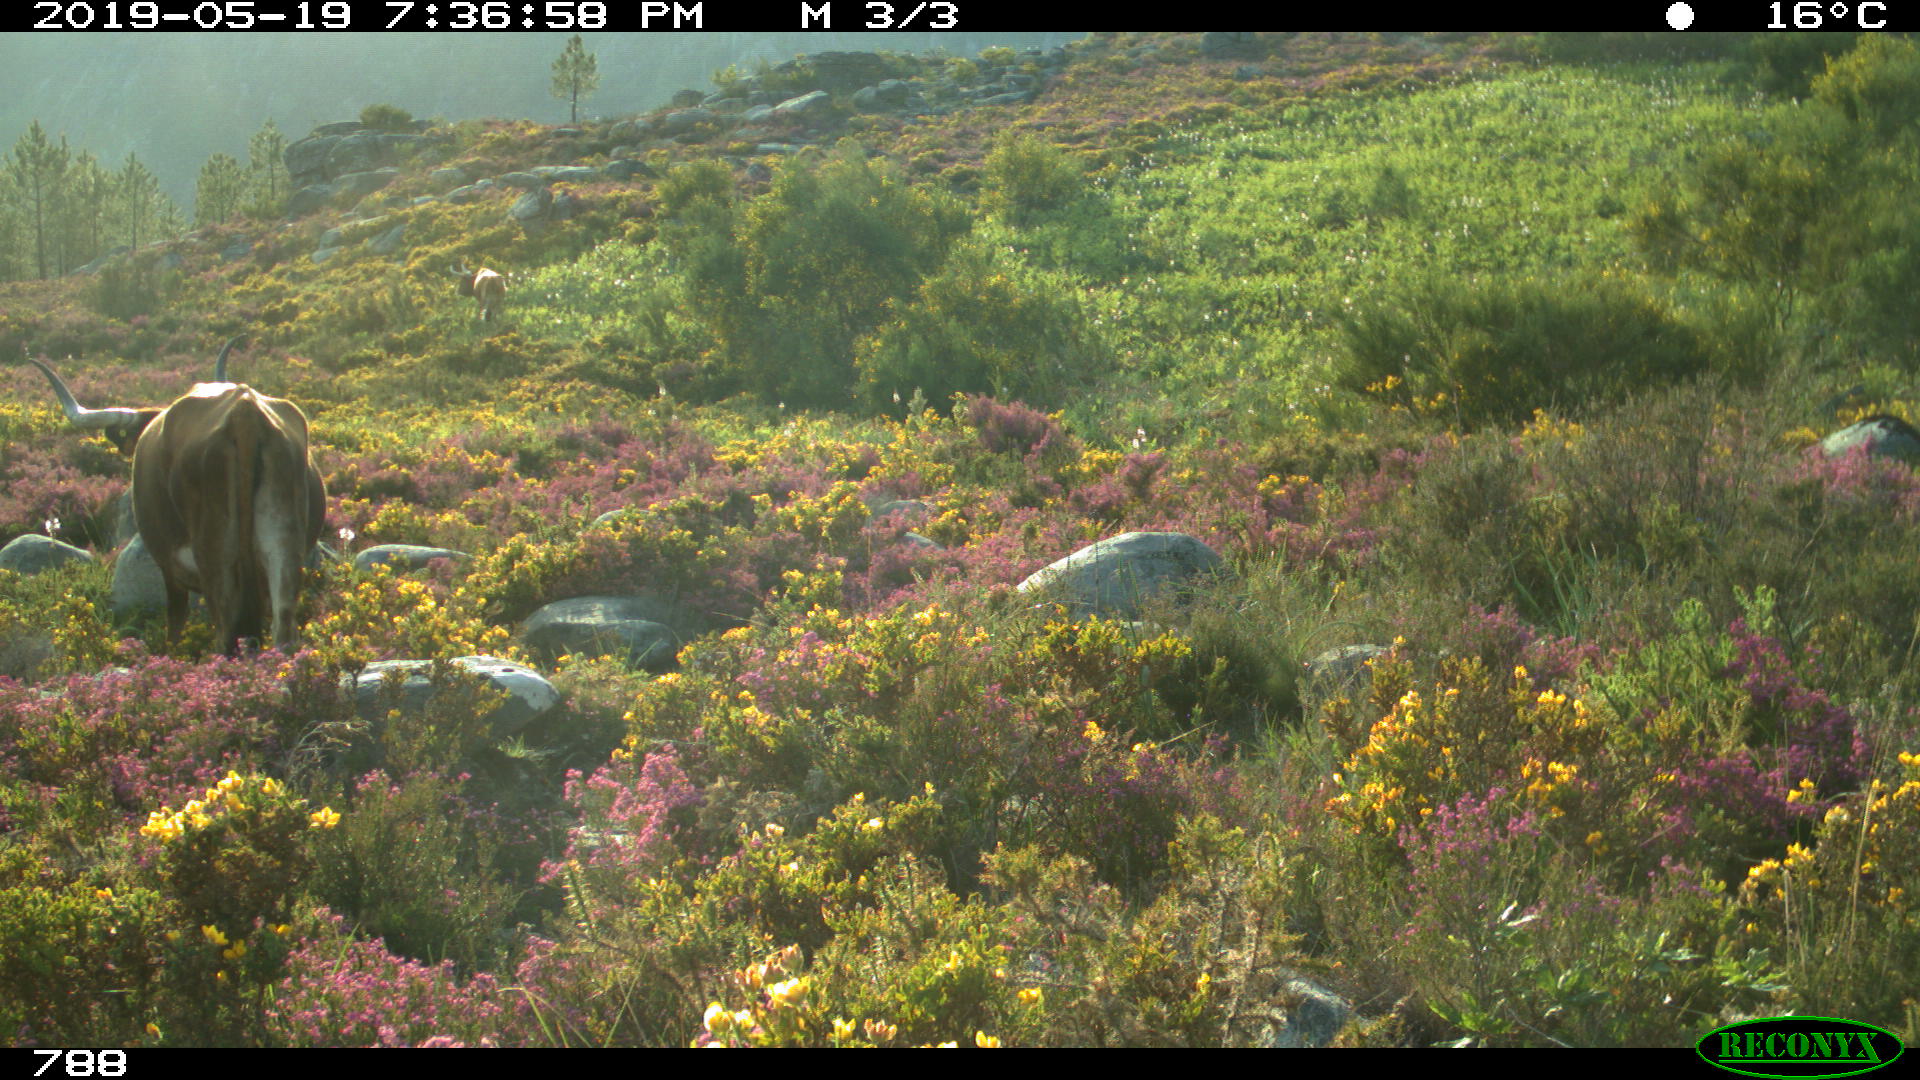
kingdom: Animalia
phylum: Chordata
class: Mammalia
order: Artiodactyla
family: Bovidae
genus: Bos
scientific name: Bos taurus
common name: Domesticated cattle
